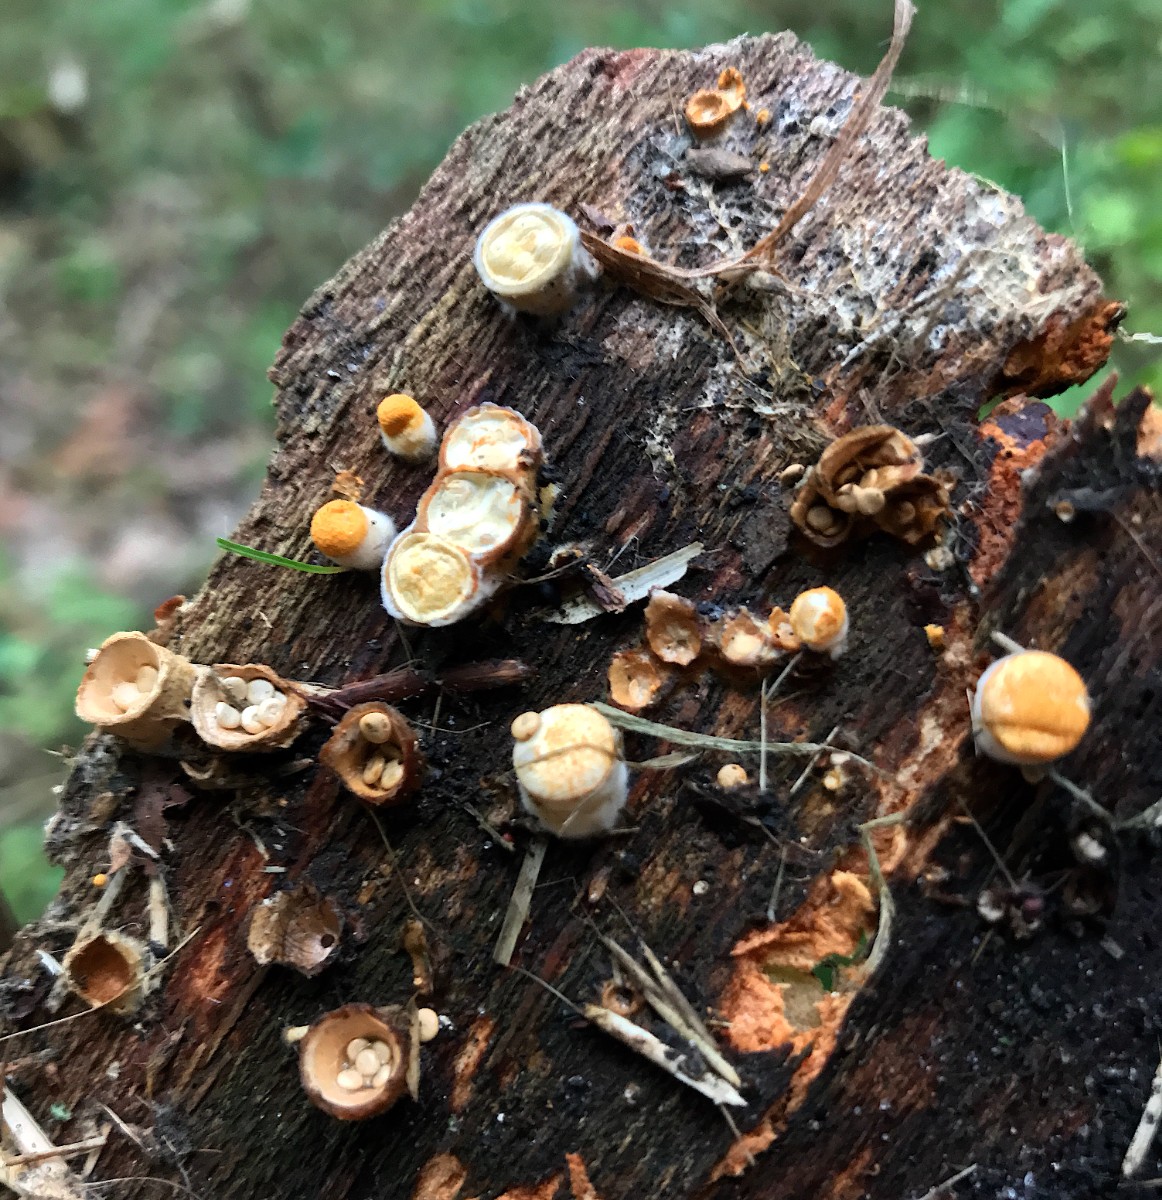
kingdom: Fungi
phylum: Basidiomycota
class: Agaricomycetes
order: Agaricales
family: Nidulariaceae
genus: Crucibulum
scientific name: Crucibulum crucibuliforme
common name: krukkesvamp
